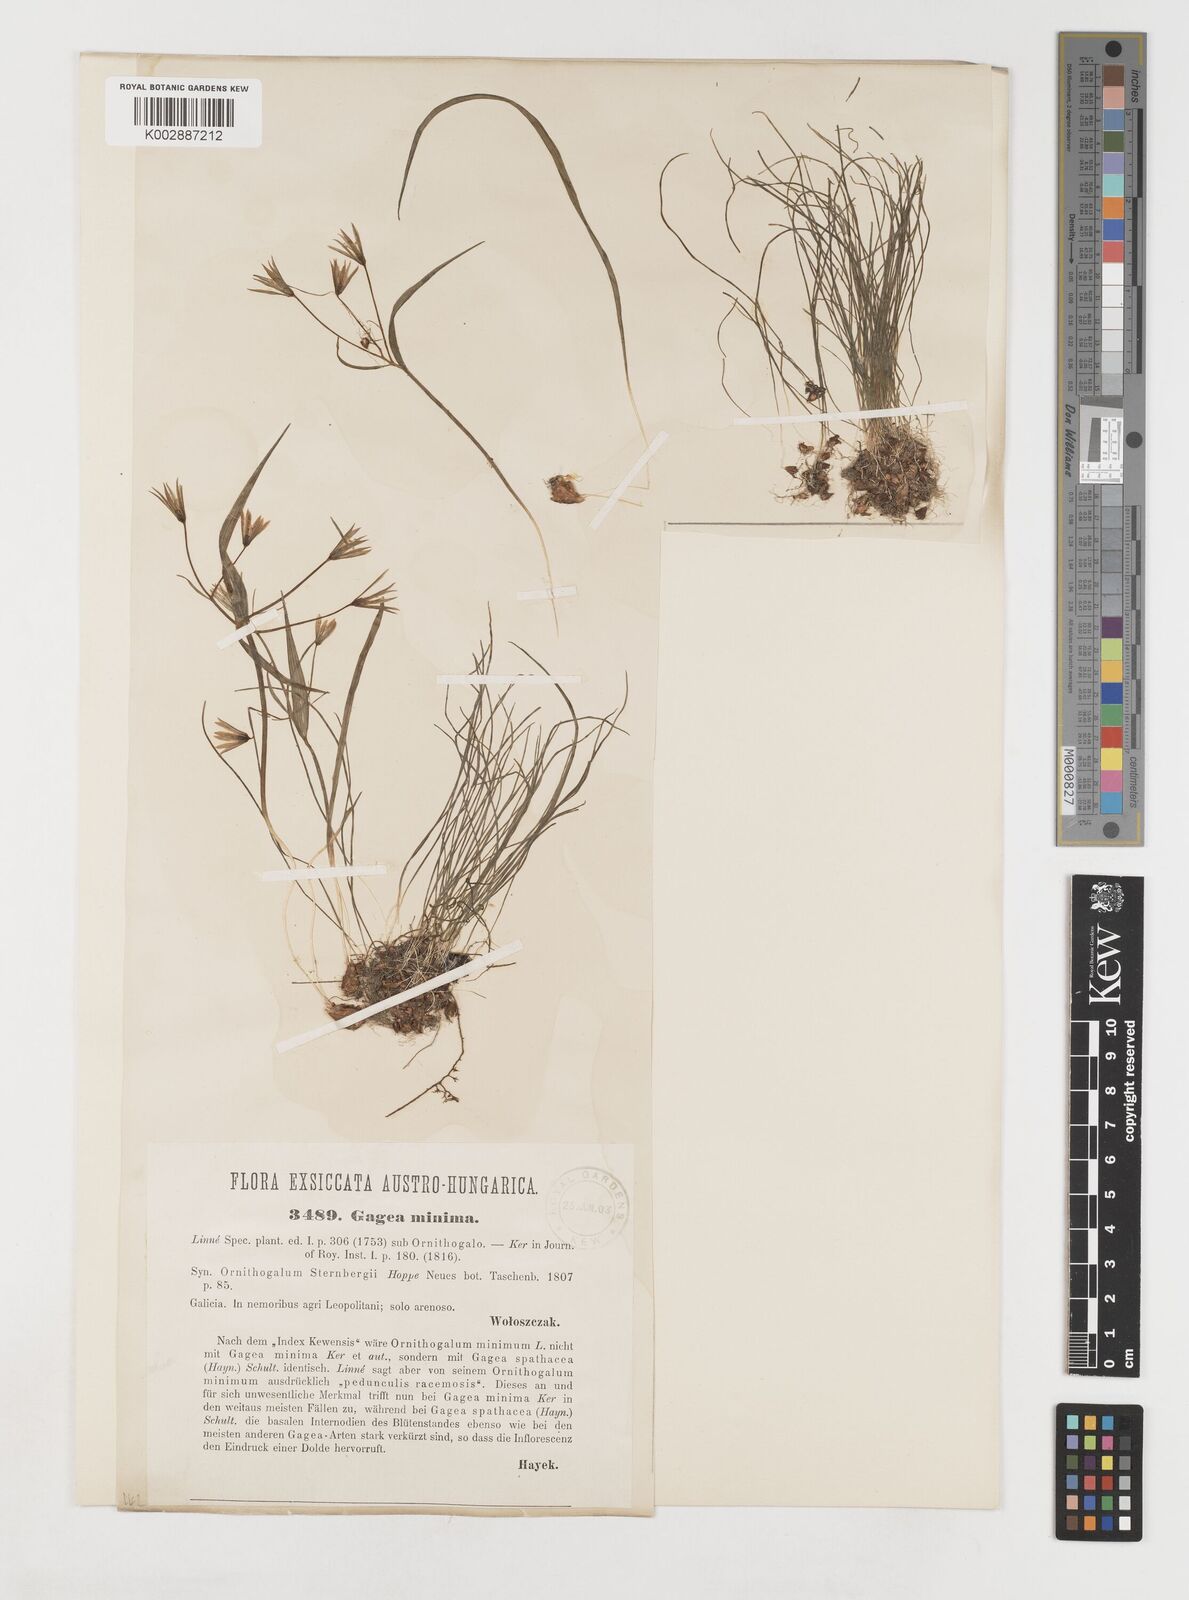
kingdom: Plantae
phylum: Tracheophyta
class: Liliopsida
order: Liliales
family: Liliaceae
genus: Gagea
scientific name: Gagea minima
